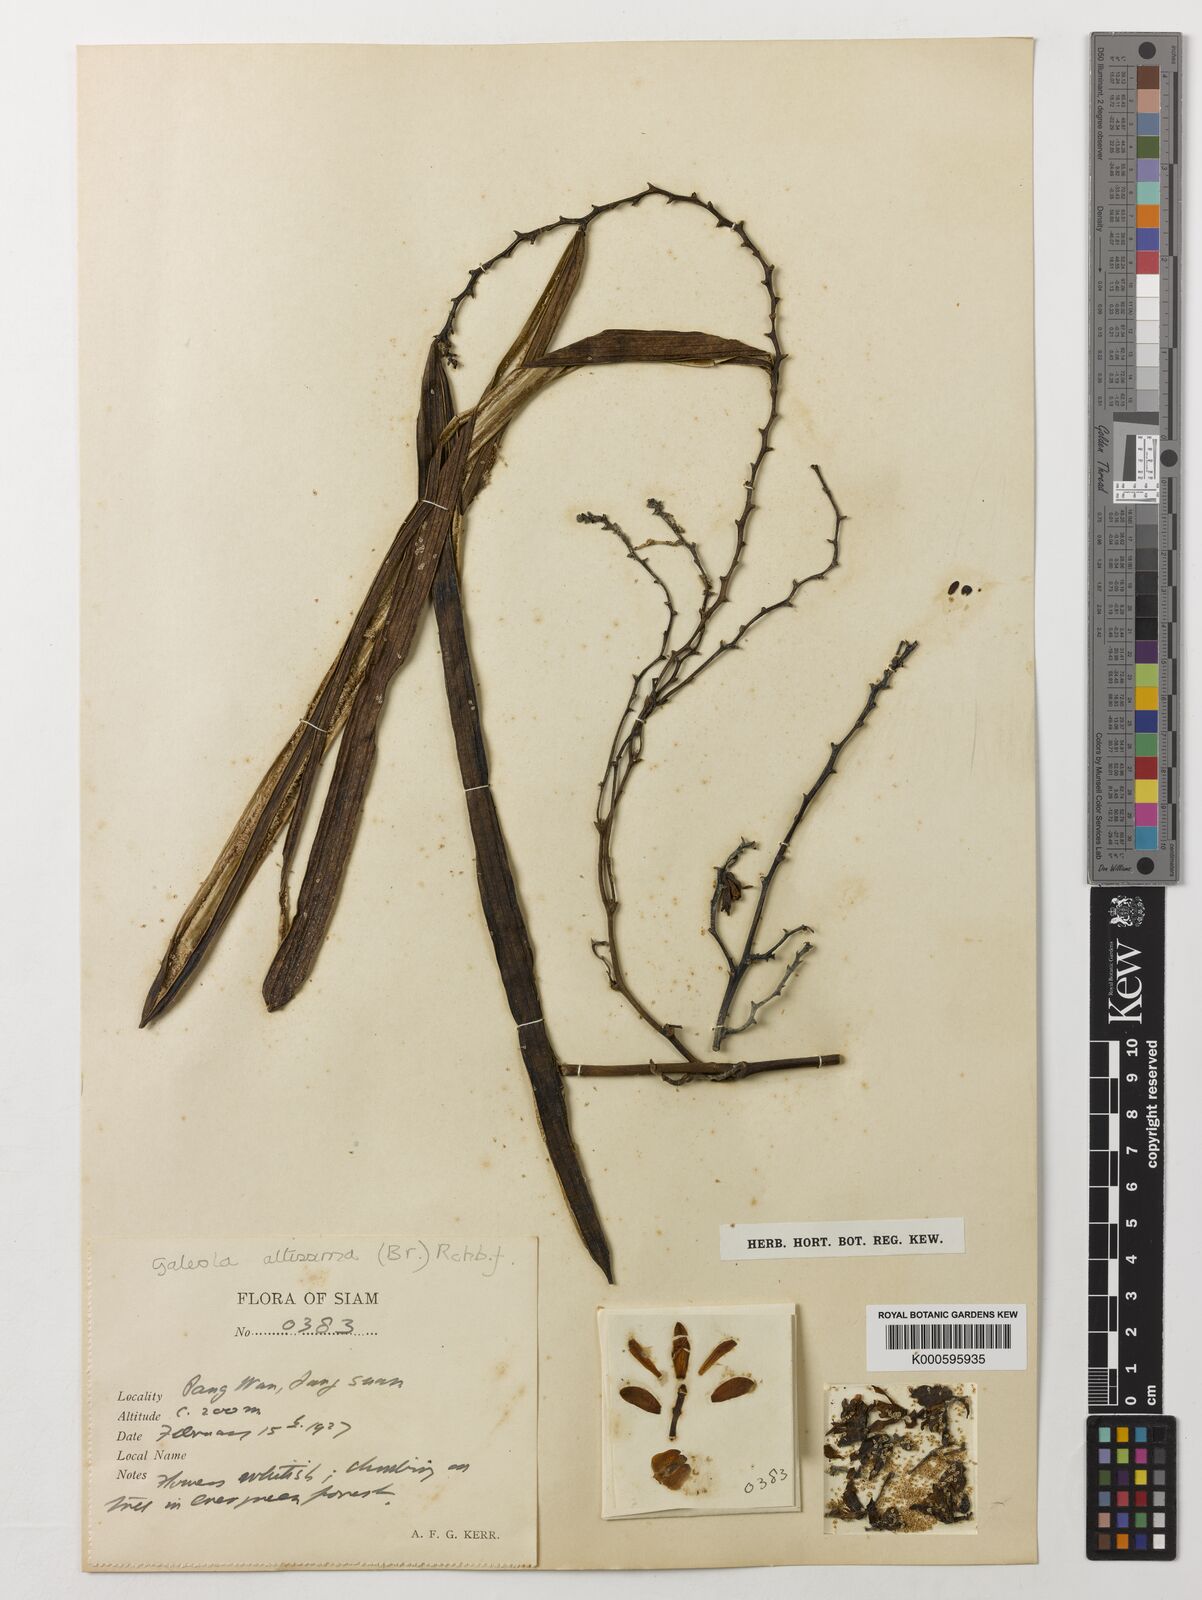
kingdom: Plantae
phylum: Tracheophyta
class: Liliopsida
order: Asparagales
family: Orchidaceae
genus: Erythrorchis
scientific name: Erythrorchis altissima
